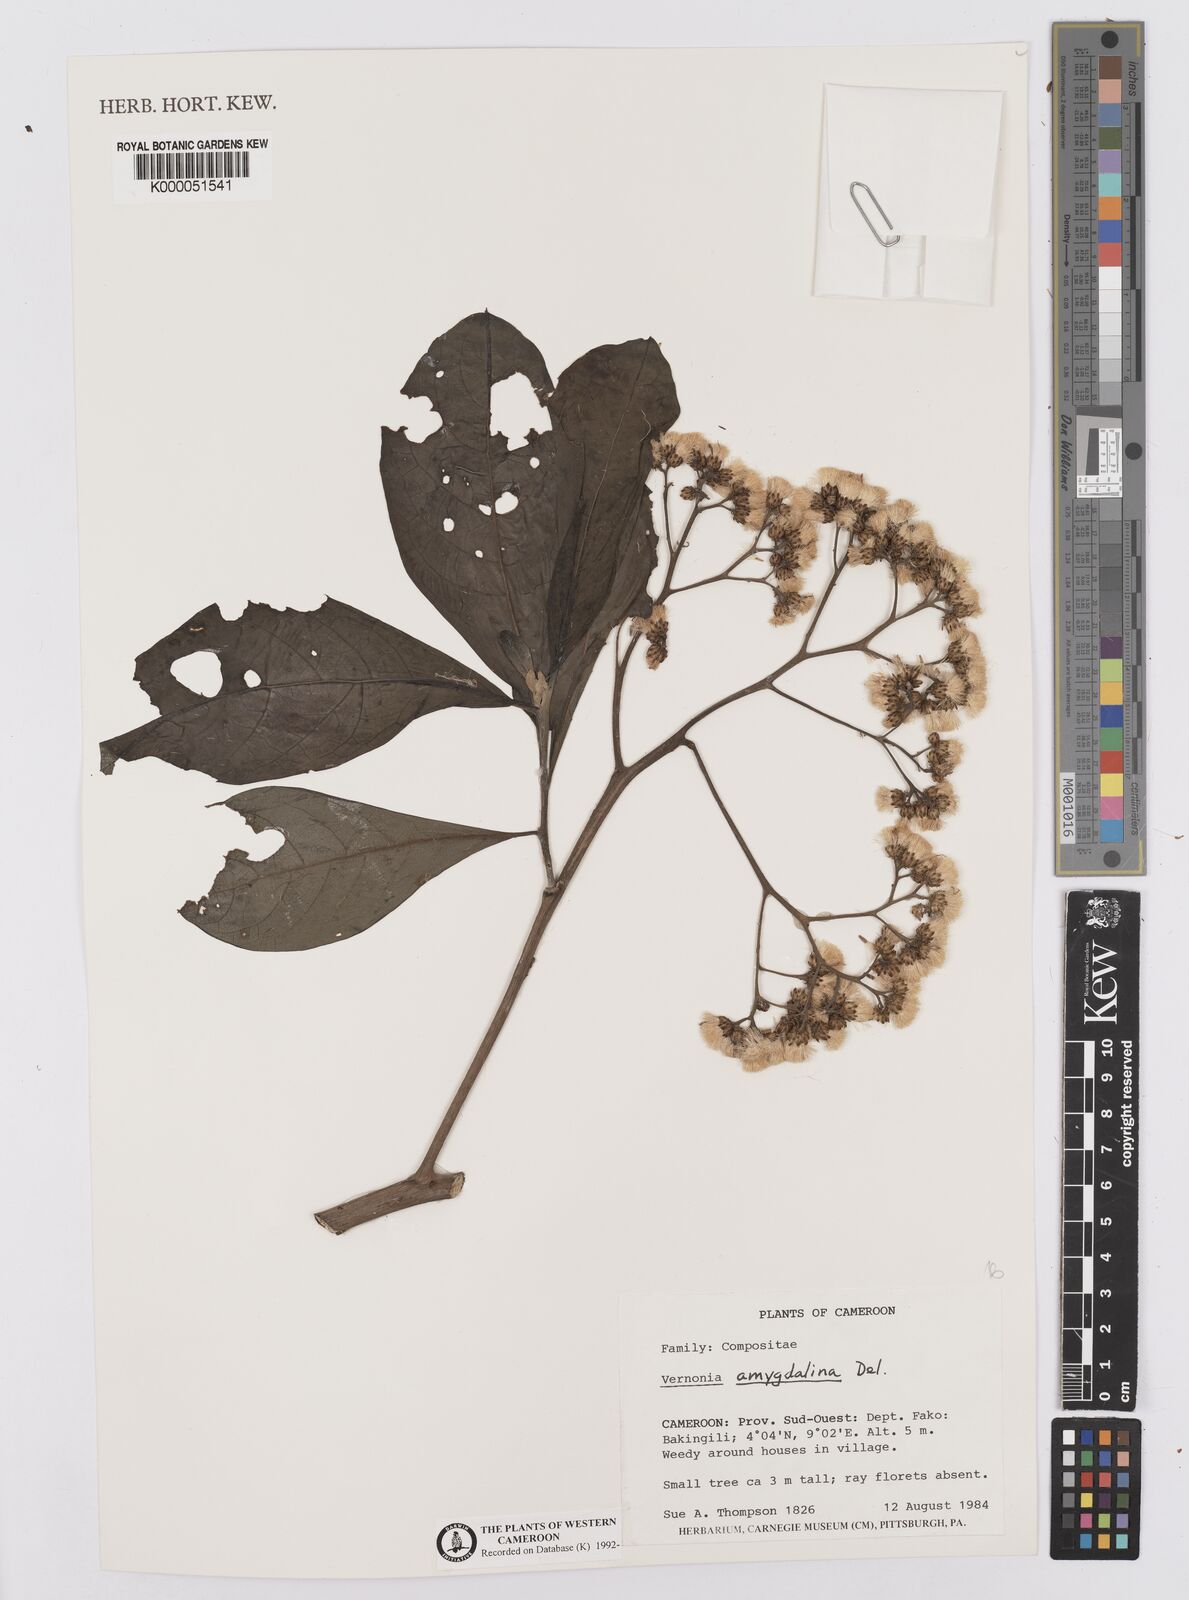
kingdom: Plantae
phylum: Tracheophyta
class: Magnoliopsida
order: Asterales
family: Asteraceae
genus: Gymnanthemum
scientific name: Gymnanthemum amygdalinum
